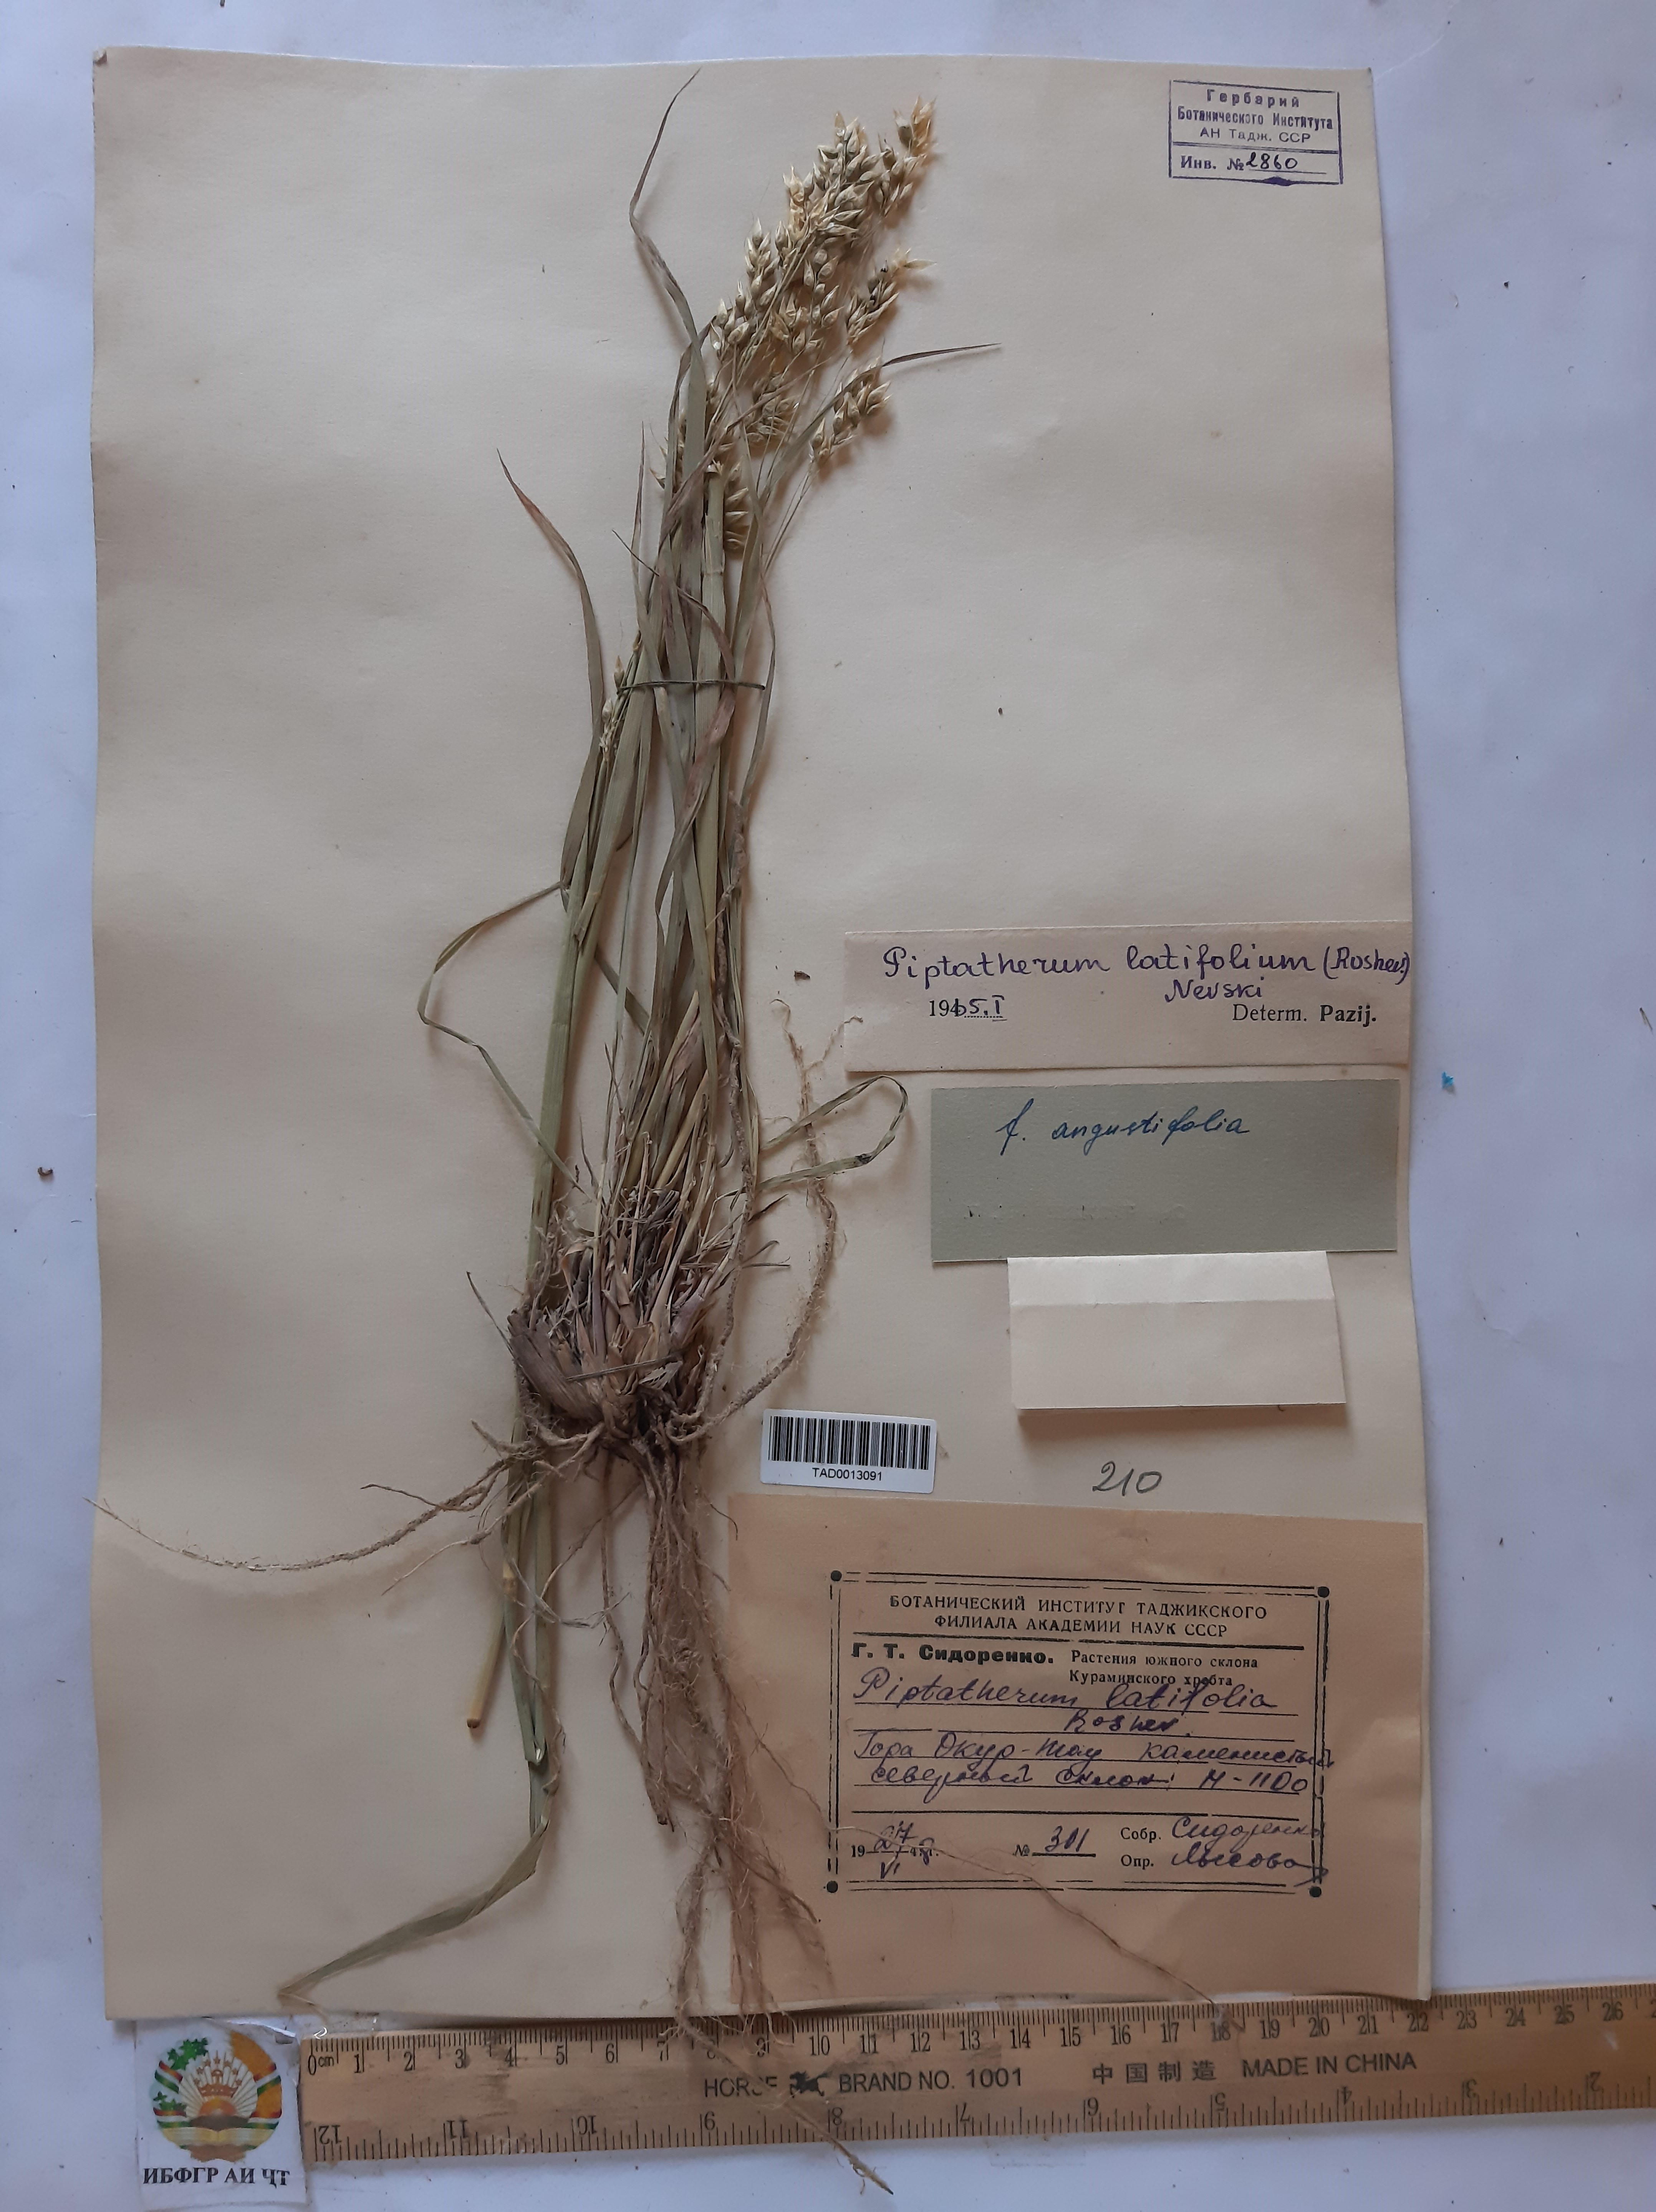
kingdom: Plantae
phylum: Tracheophyta
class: Liliopsida
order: Poales
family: Poaceae
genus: Piptatherum
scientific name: Piptatherum latifolium
